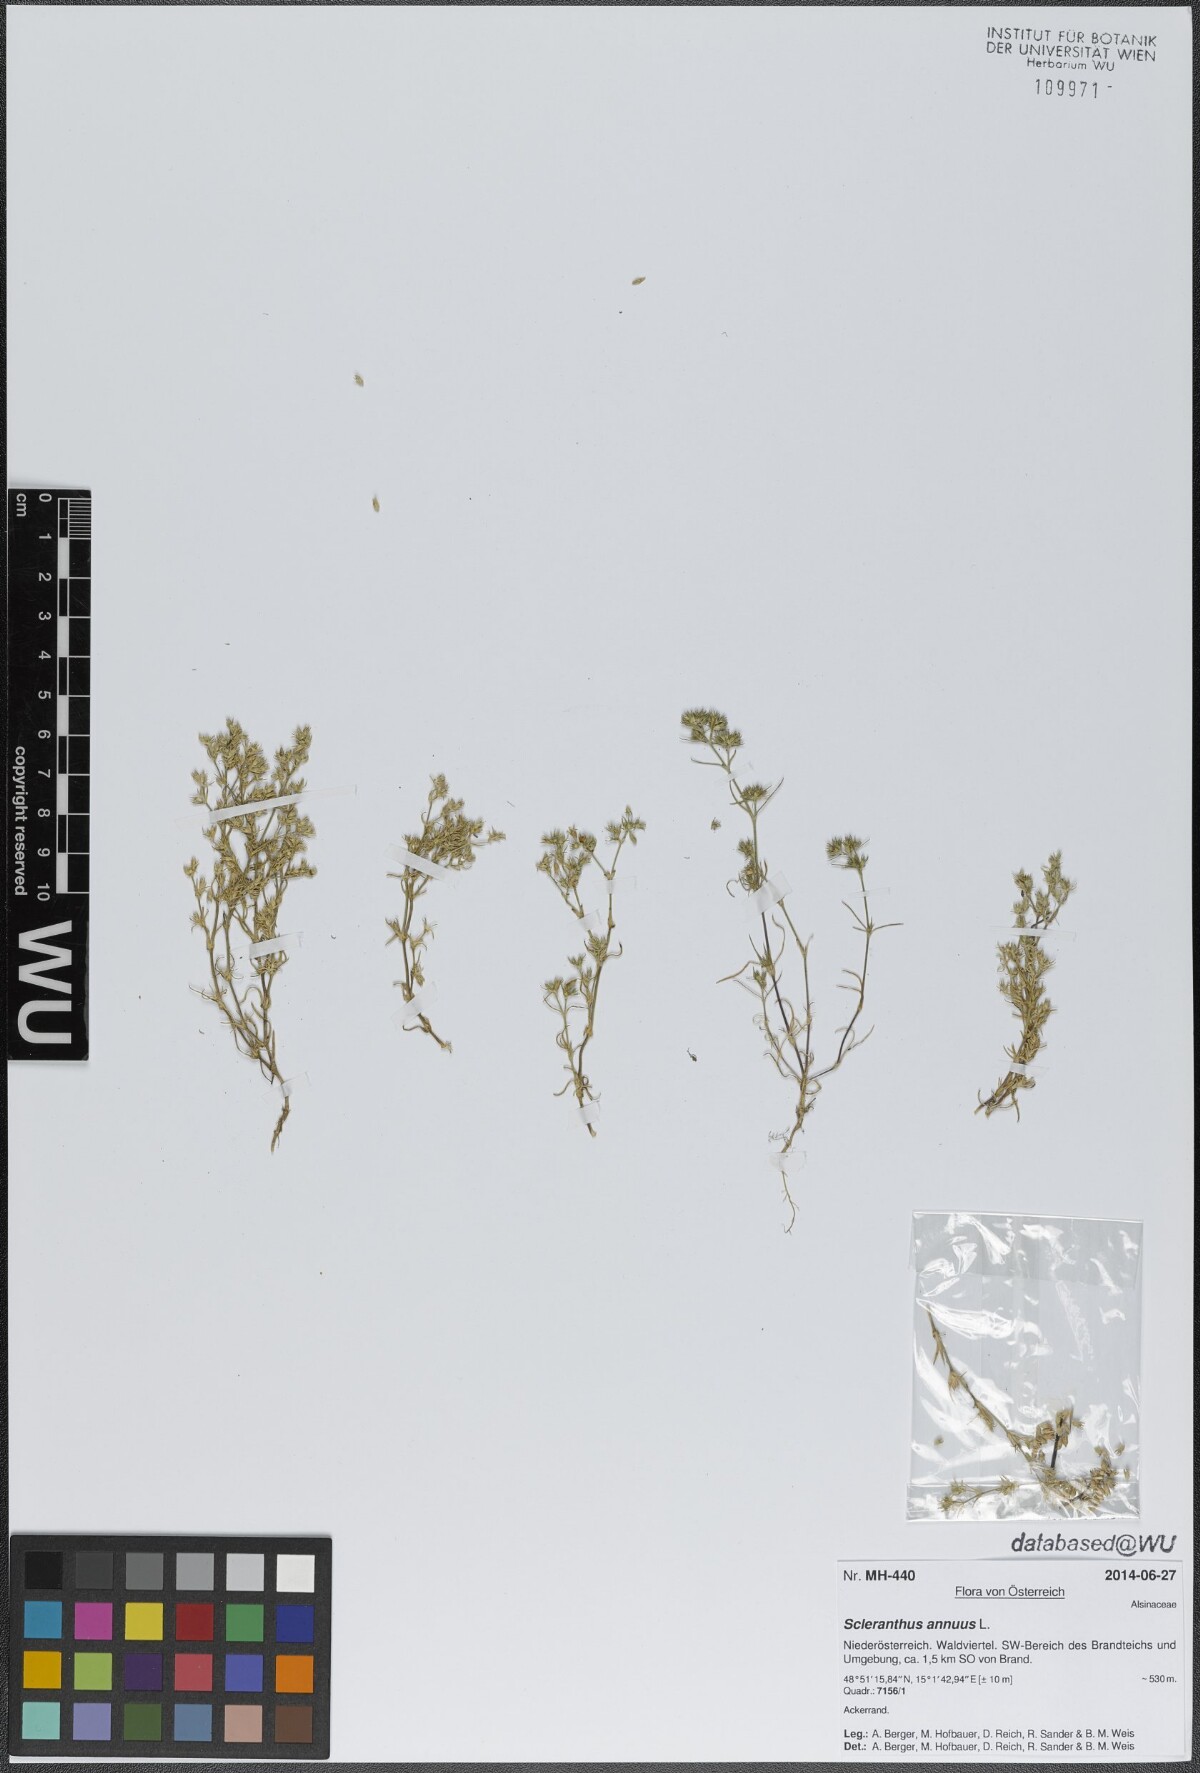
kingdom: Plantae
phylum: Tracheophyta
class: Magnoliopsida
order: Caryophyllales
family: Caryophyllaceae
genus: Scleranthus
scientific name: Scleranthus annuus
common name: Annual knawel
